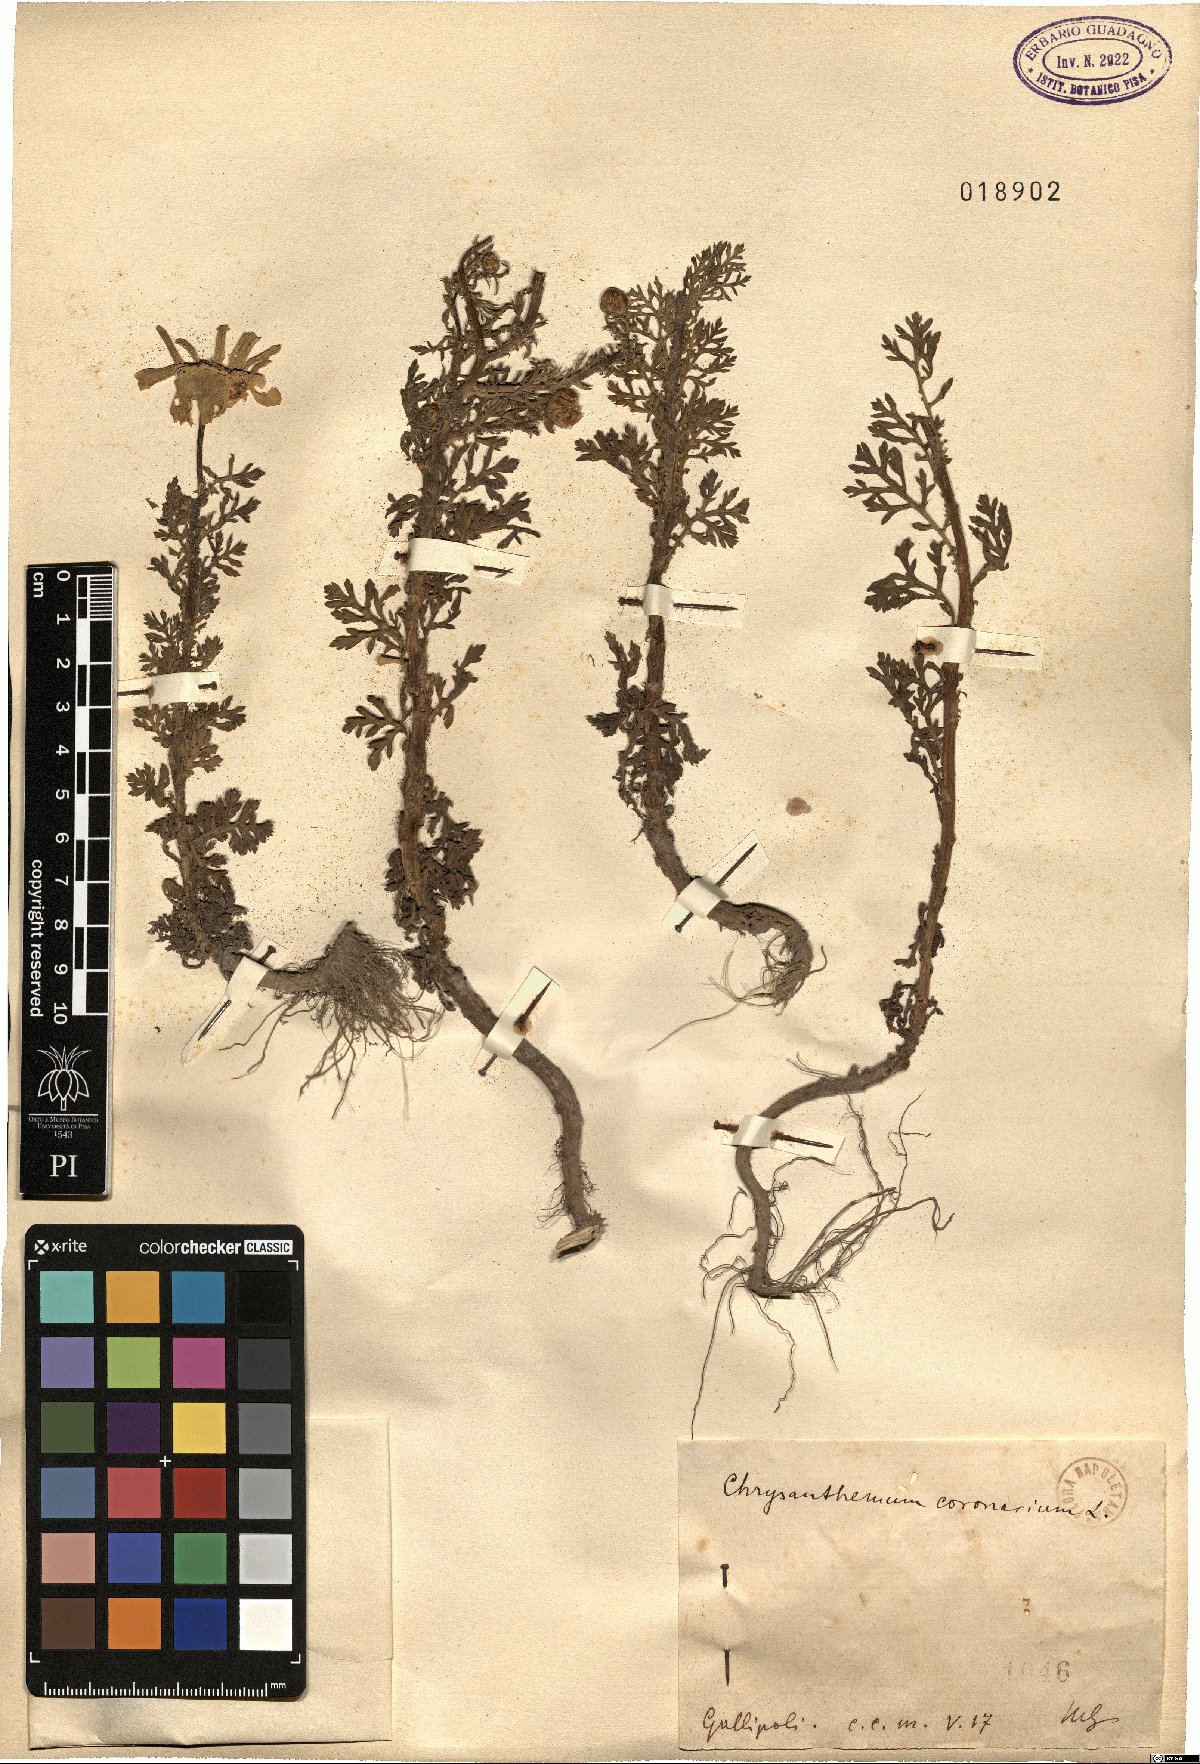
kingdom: Plantae
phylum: Tracheophyta
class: Magnoliopsida
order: Asterales
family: Asteraceae
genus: Glebionis
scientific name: Glebionis coronaria
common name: Crowndaisy
